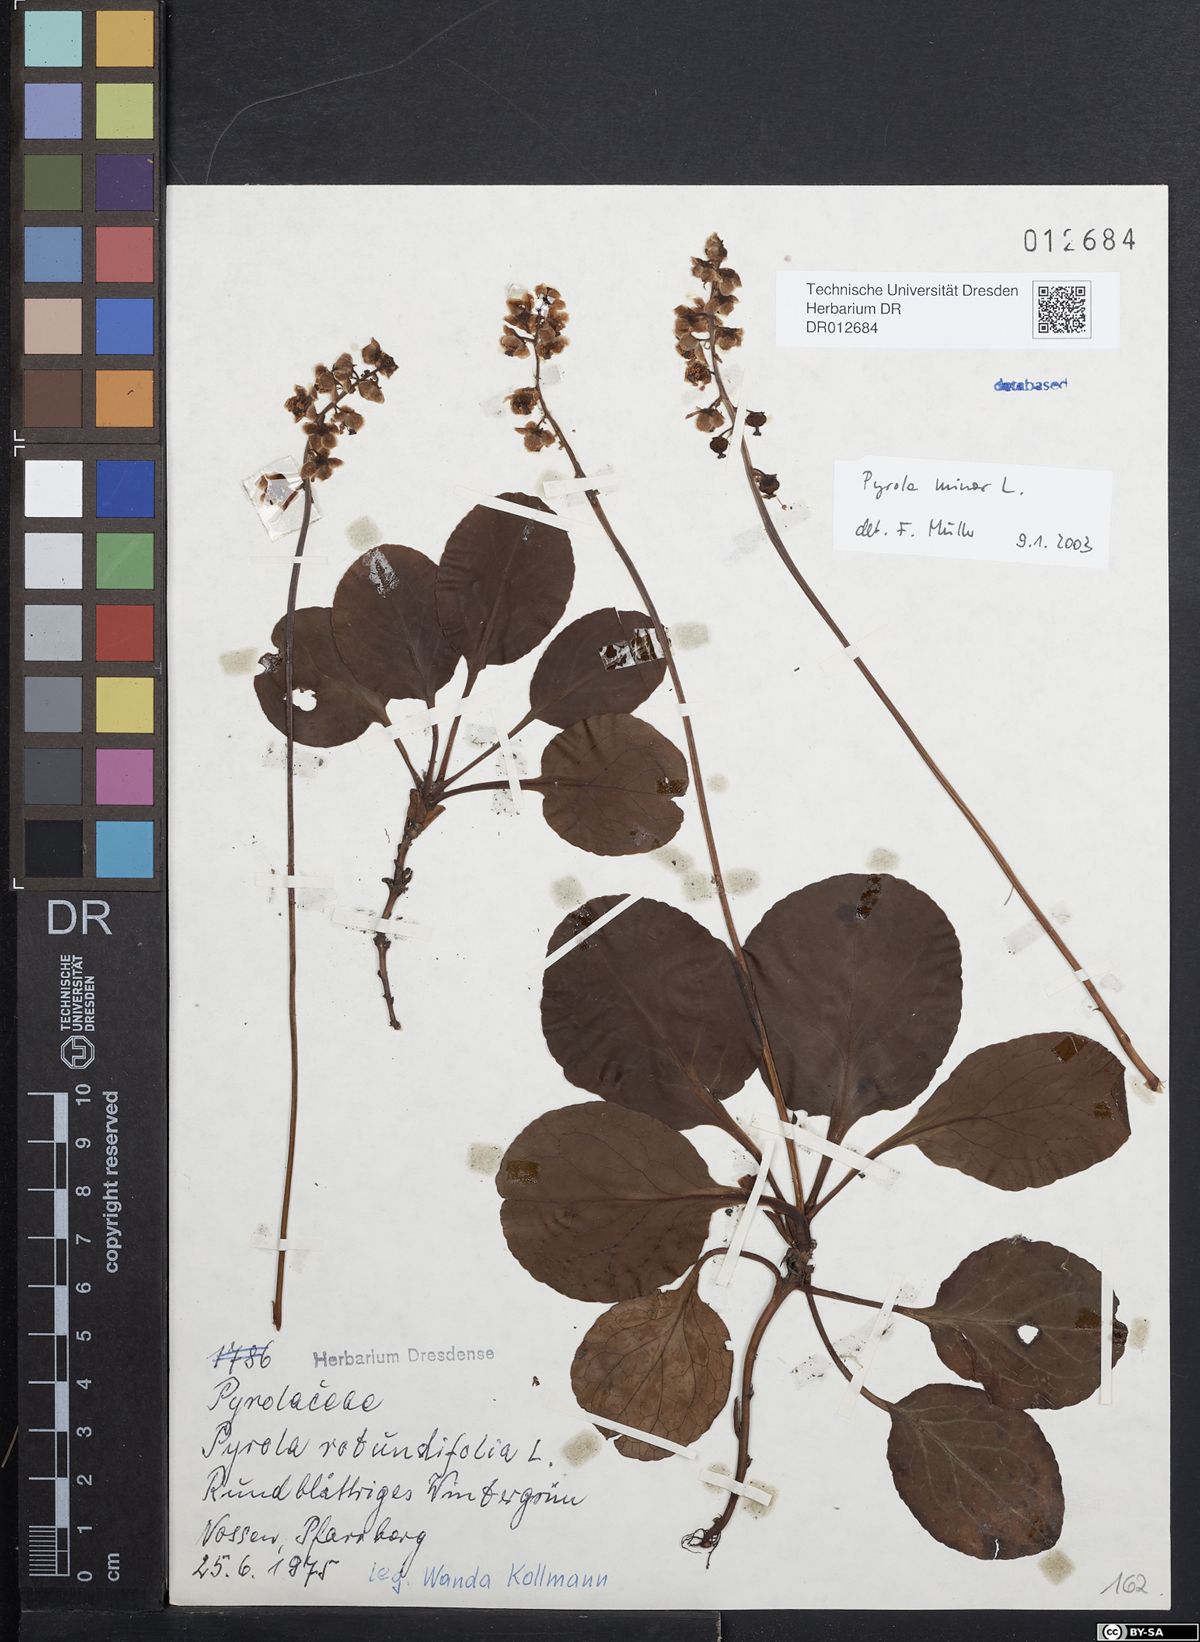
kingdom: Plantae
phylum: Tracheophyta
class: Magnoliopsida
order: Ericales
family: Ericaceae
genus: Pyrola
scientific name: Pyrola minor
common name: Common wintergreen
